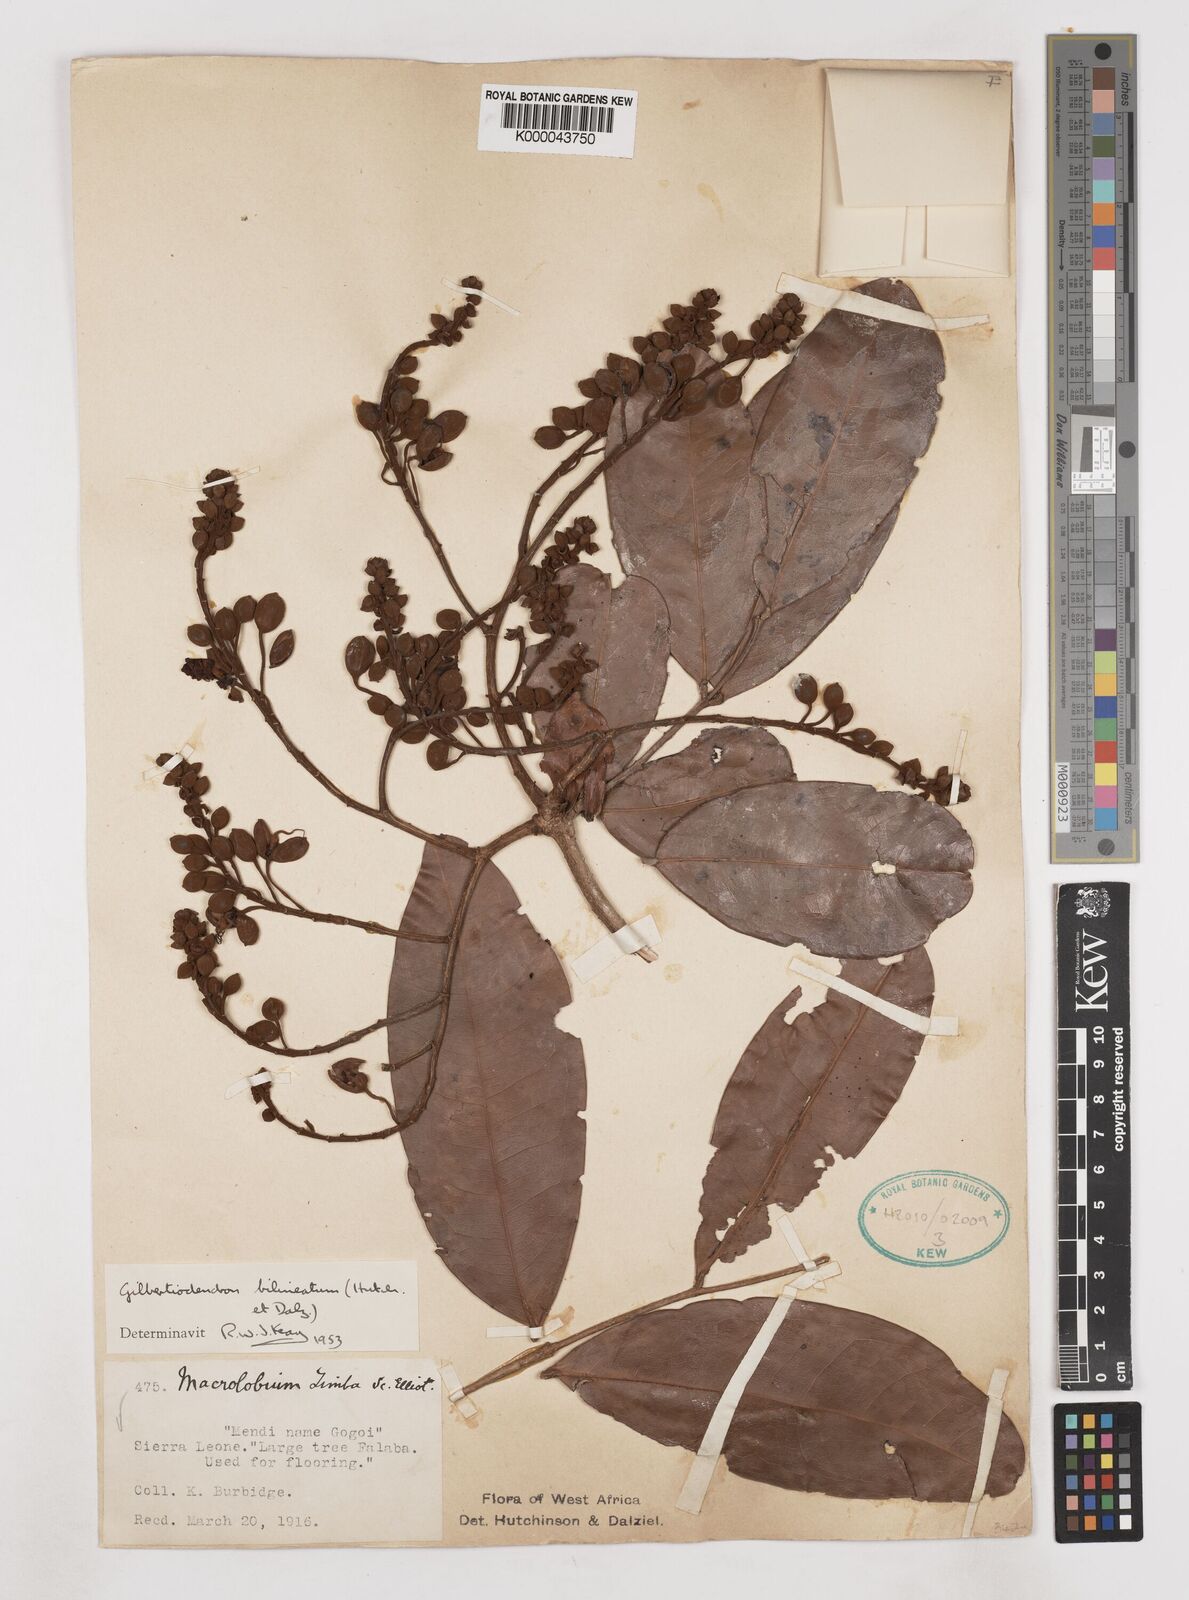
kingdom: Plantae
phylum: Tracheophyta
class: Magnoliopsida
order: Fabales
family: Fabaceae
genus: Gilbertiodendron
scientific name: Gilbertiodendron
